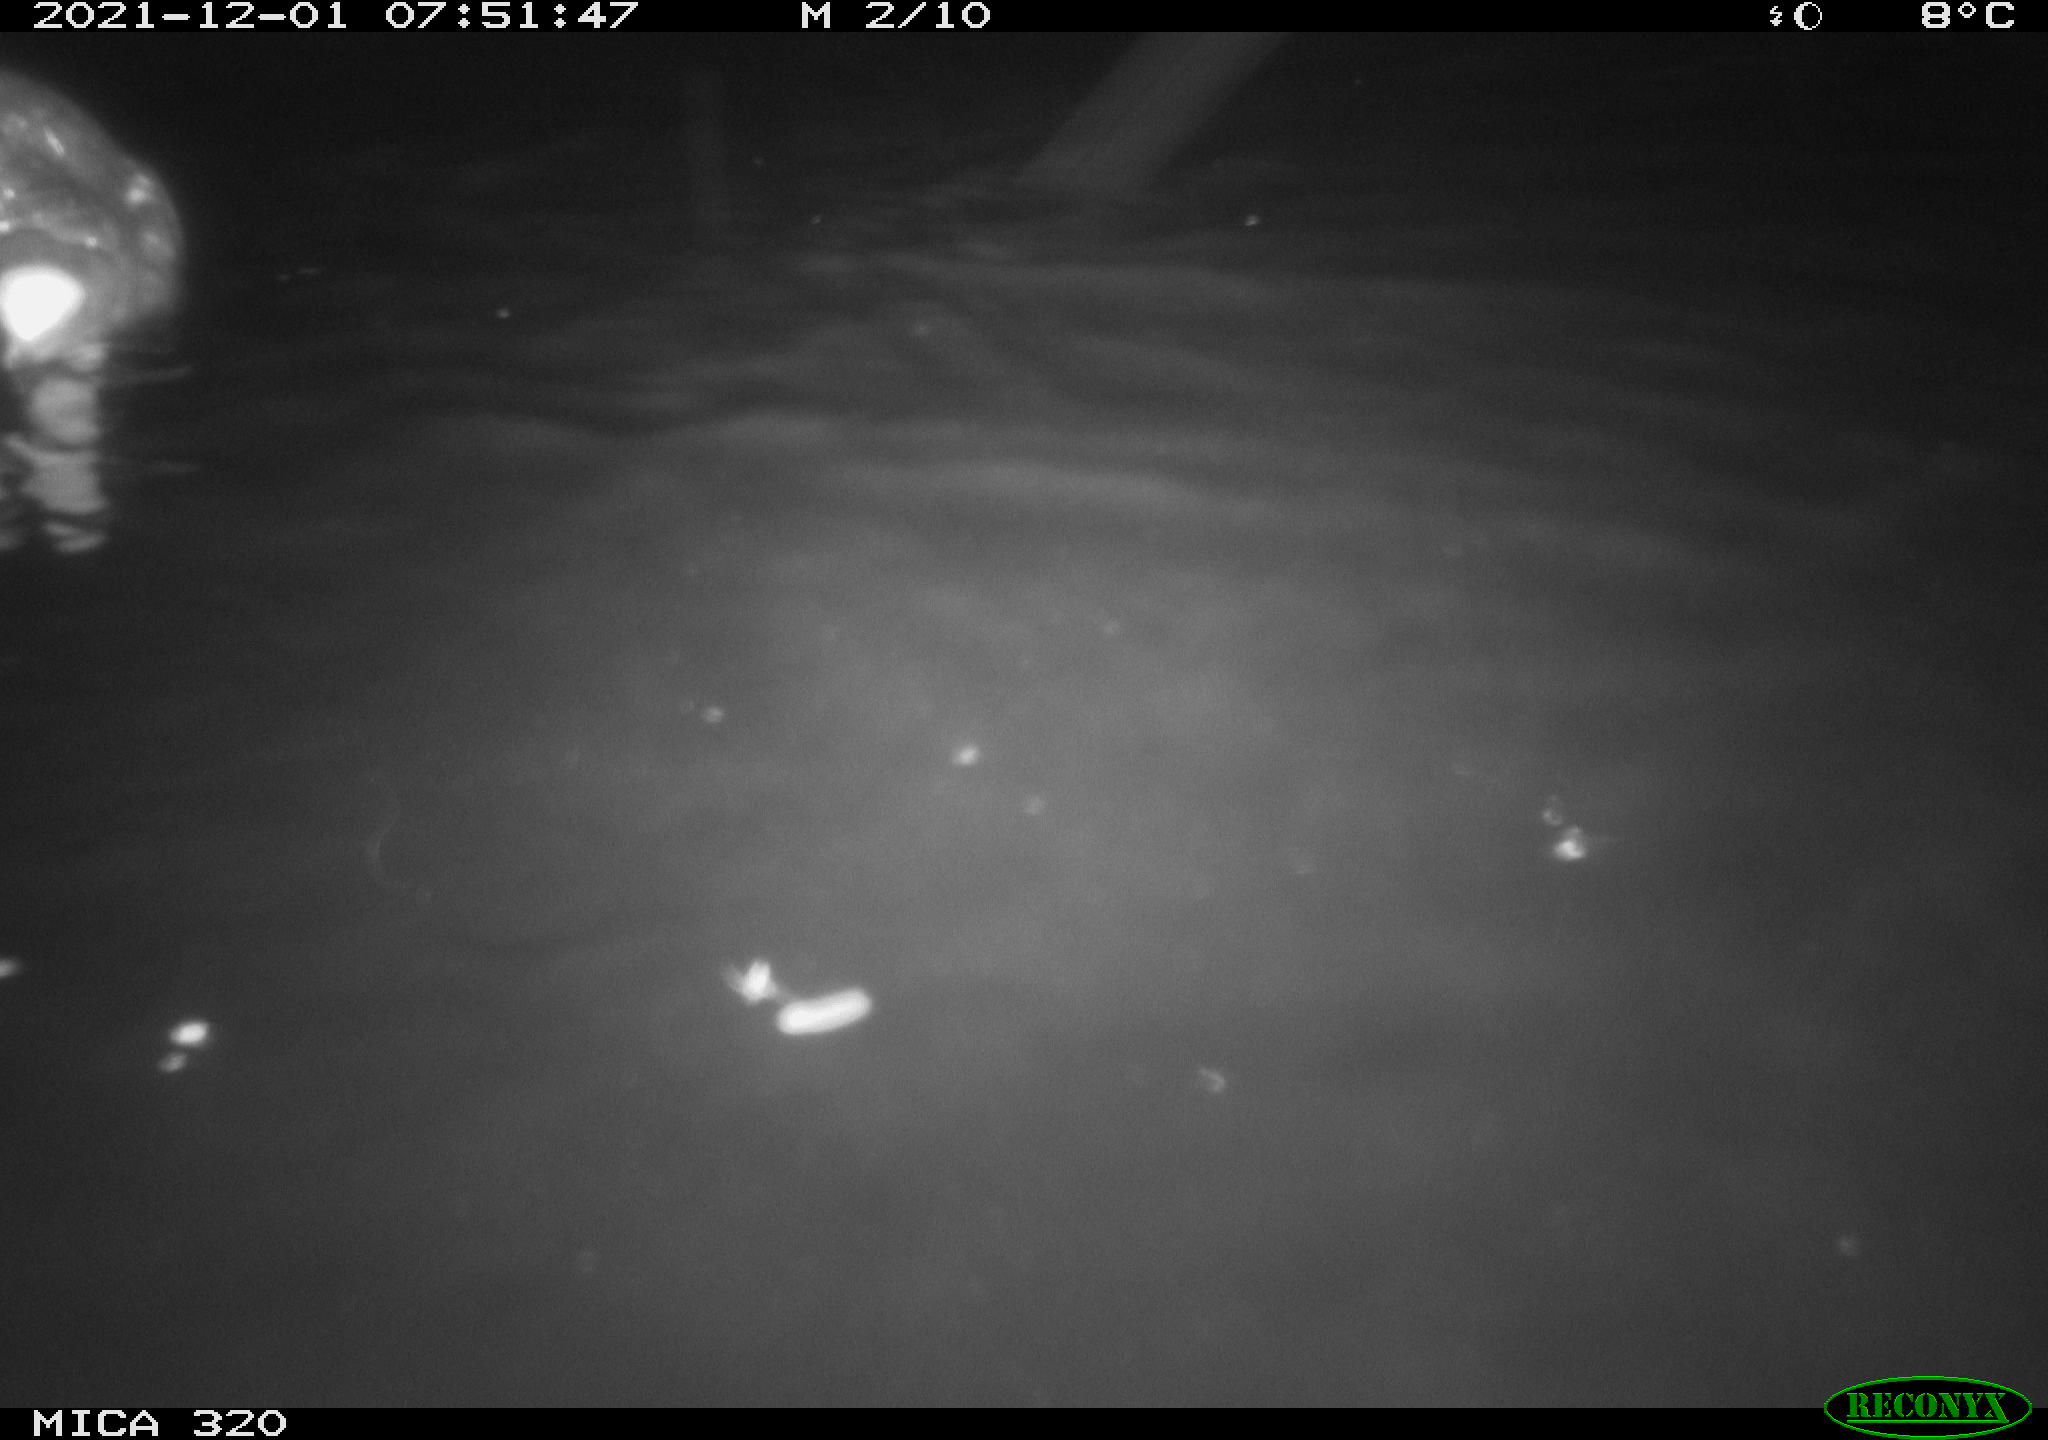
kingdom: Animalia
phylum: Chordata
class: Aves
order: Gruiformes
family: Rallidae
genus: Gallinula
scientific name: Gallinula chloropus
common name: Common moorhen
